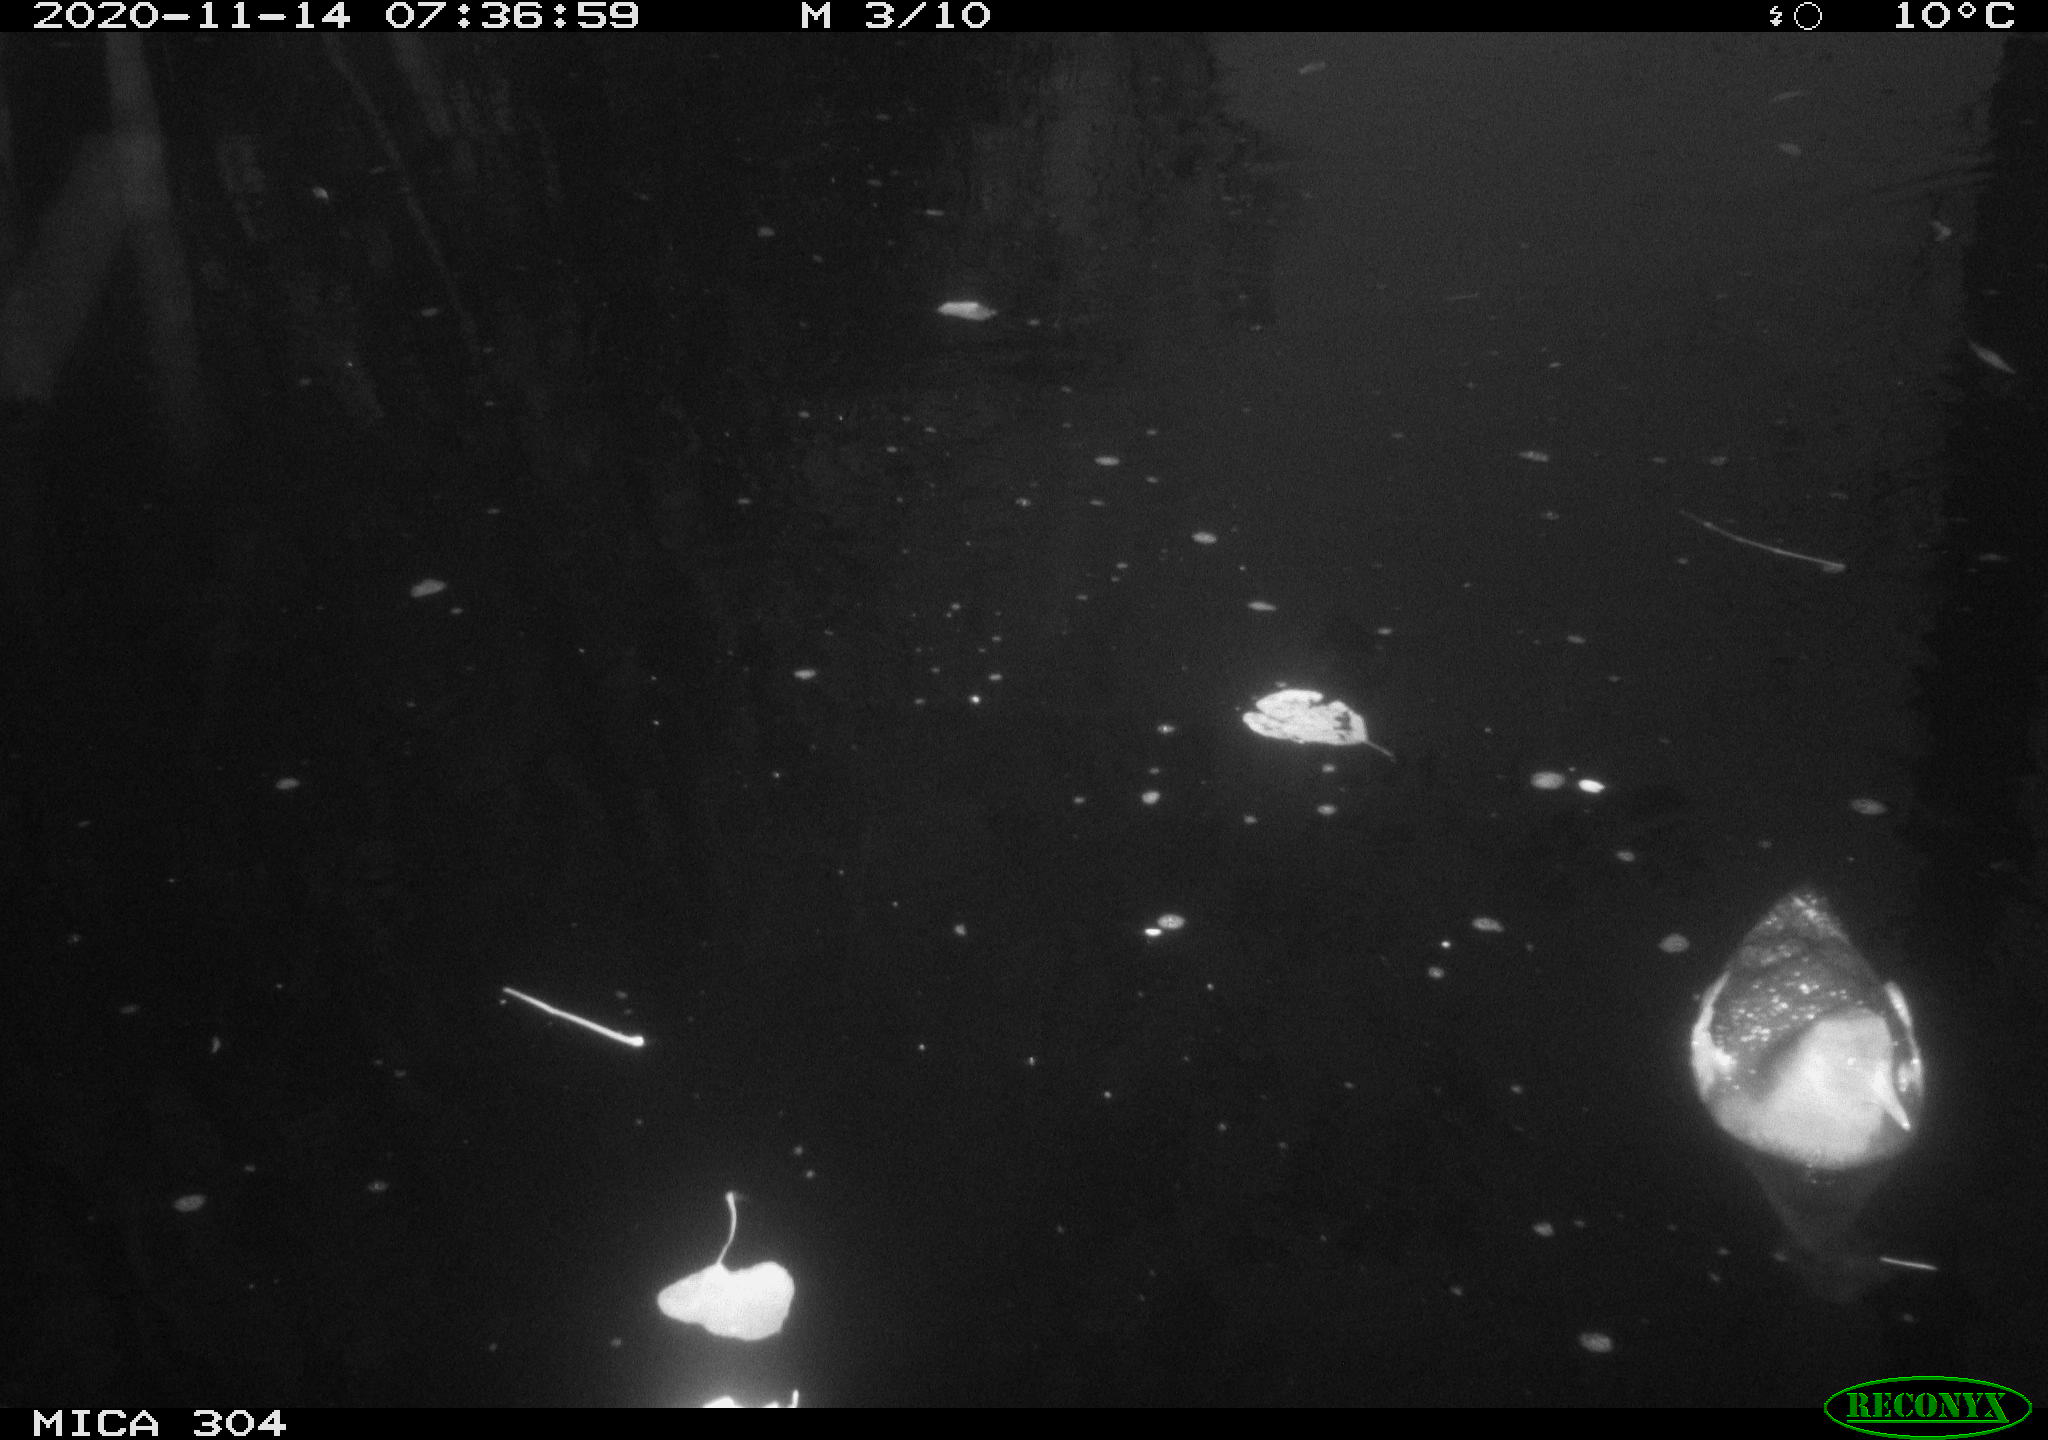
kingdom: Animalia
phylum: Chordata
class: Aves
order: Gruiformes
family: Rallidae
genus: Gallinula
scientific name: Gallinula chloropus
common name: Common moorhen
